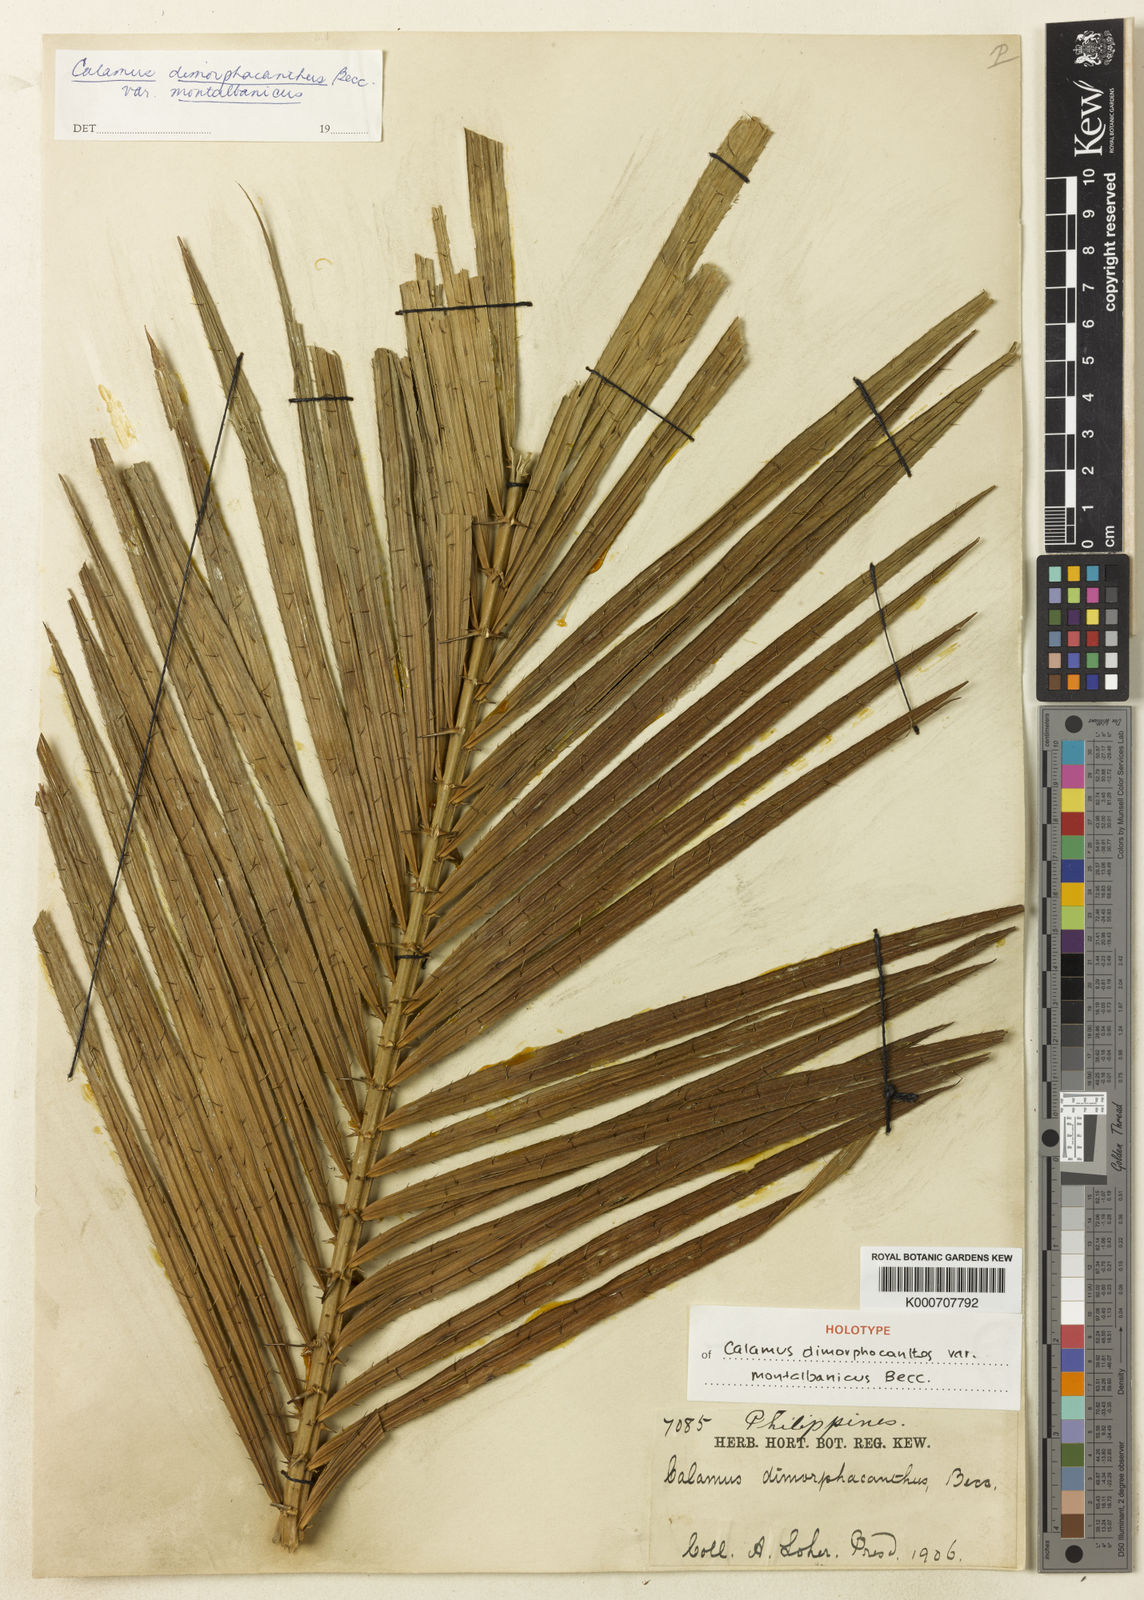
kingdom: Plantae
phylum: Tracheophyta
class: Liliopsida
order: Arecales
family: Arecaceae
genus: Calamus
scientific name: Calamus siphonospathus
